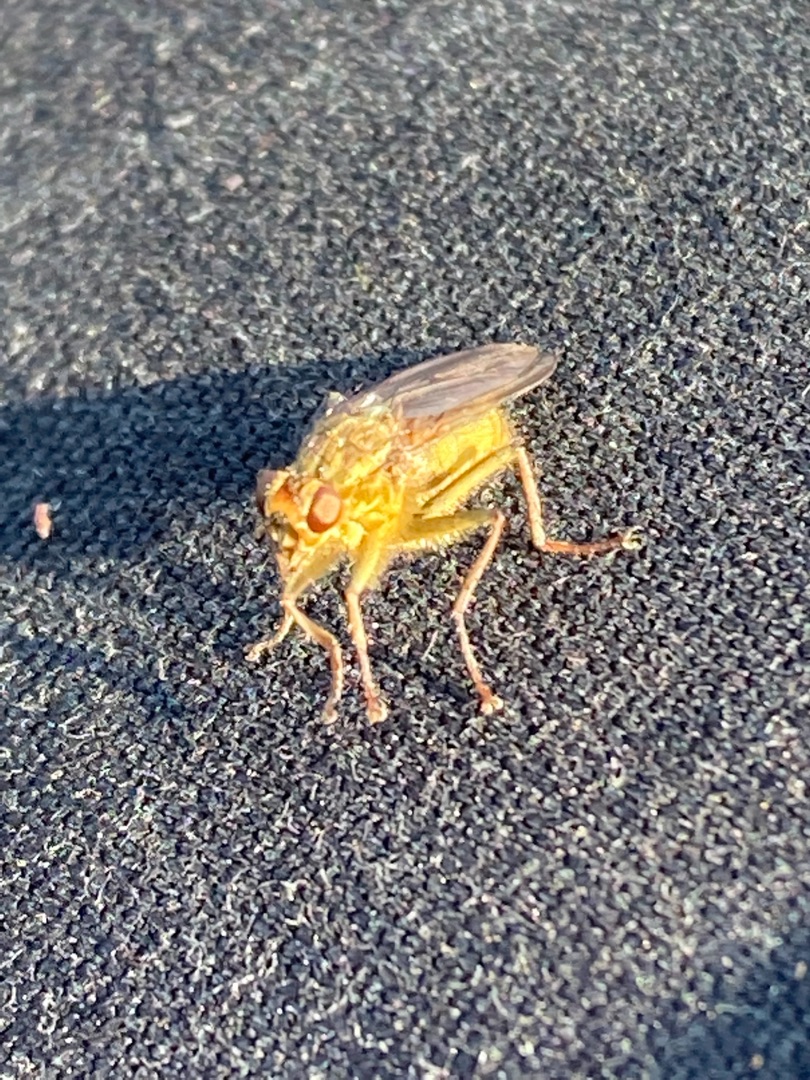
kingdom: Animalia
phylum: Arthropoda
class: Insecta
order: Diptera
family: Scathophagidae
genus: Scathophaga
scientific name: Scathophaga stercoraria
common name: Almindelig gødningsflue
